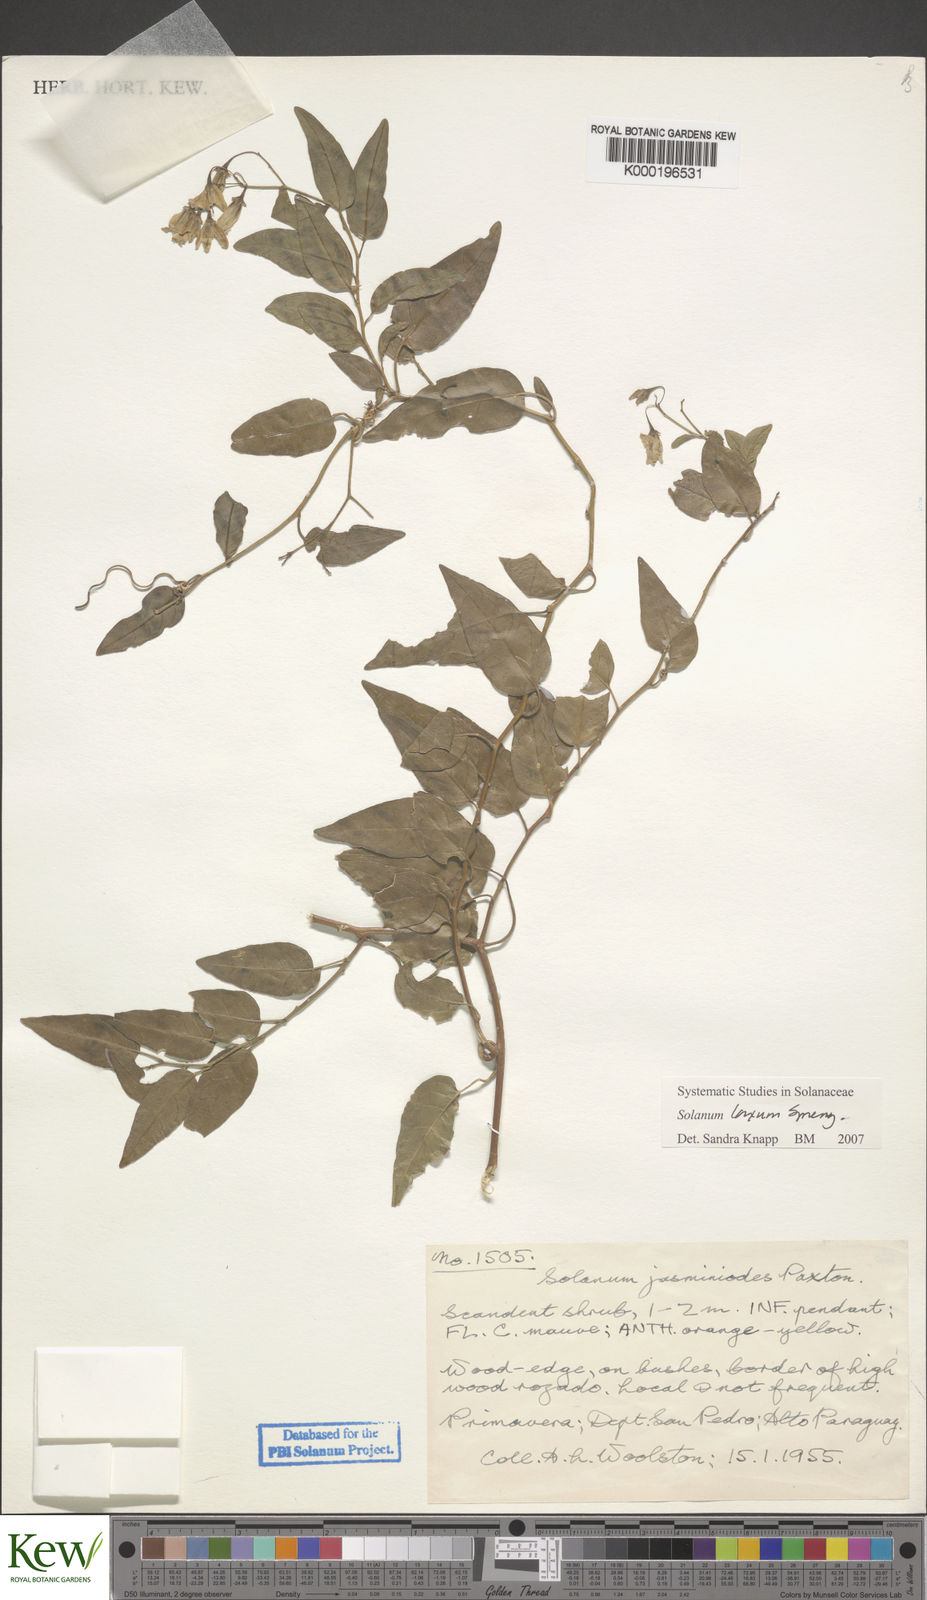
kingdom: Plantae
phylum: Tracheophyta
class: Magnoliopsida
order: Solanales
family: Solanaceae
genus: Solanum
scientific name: Solanum laxum
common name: Nightshade
